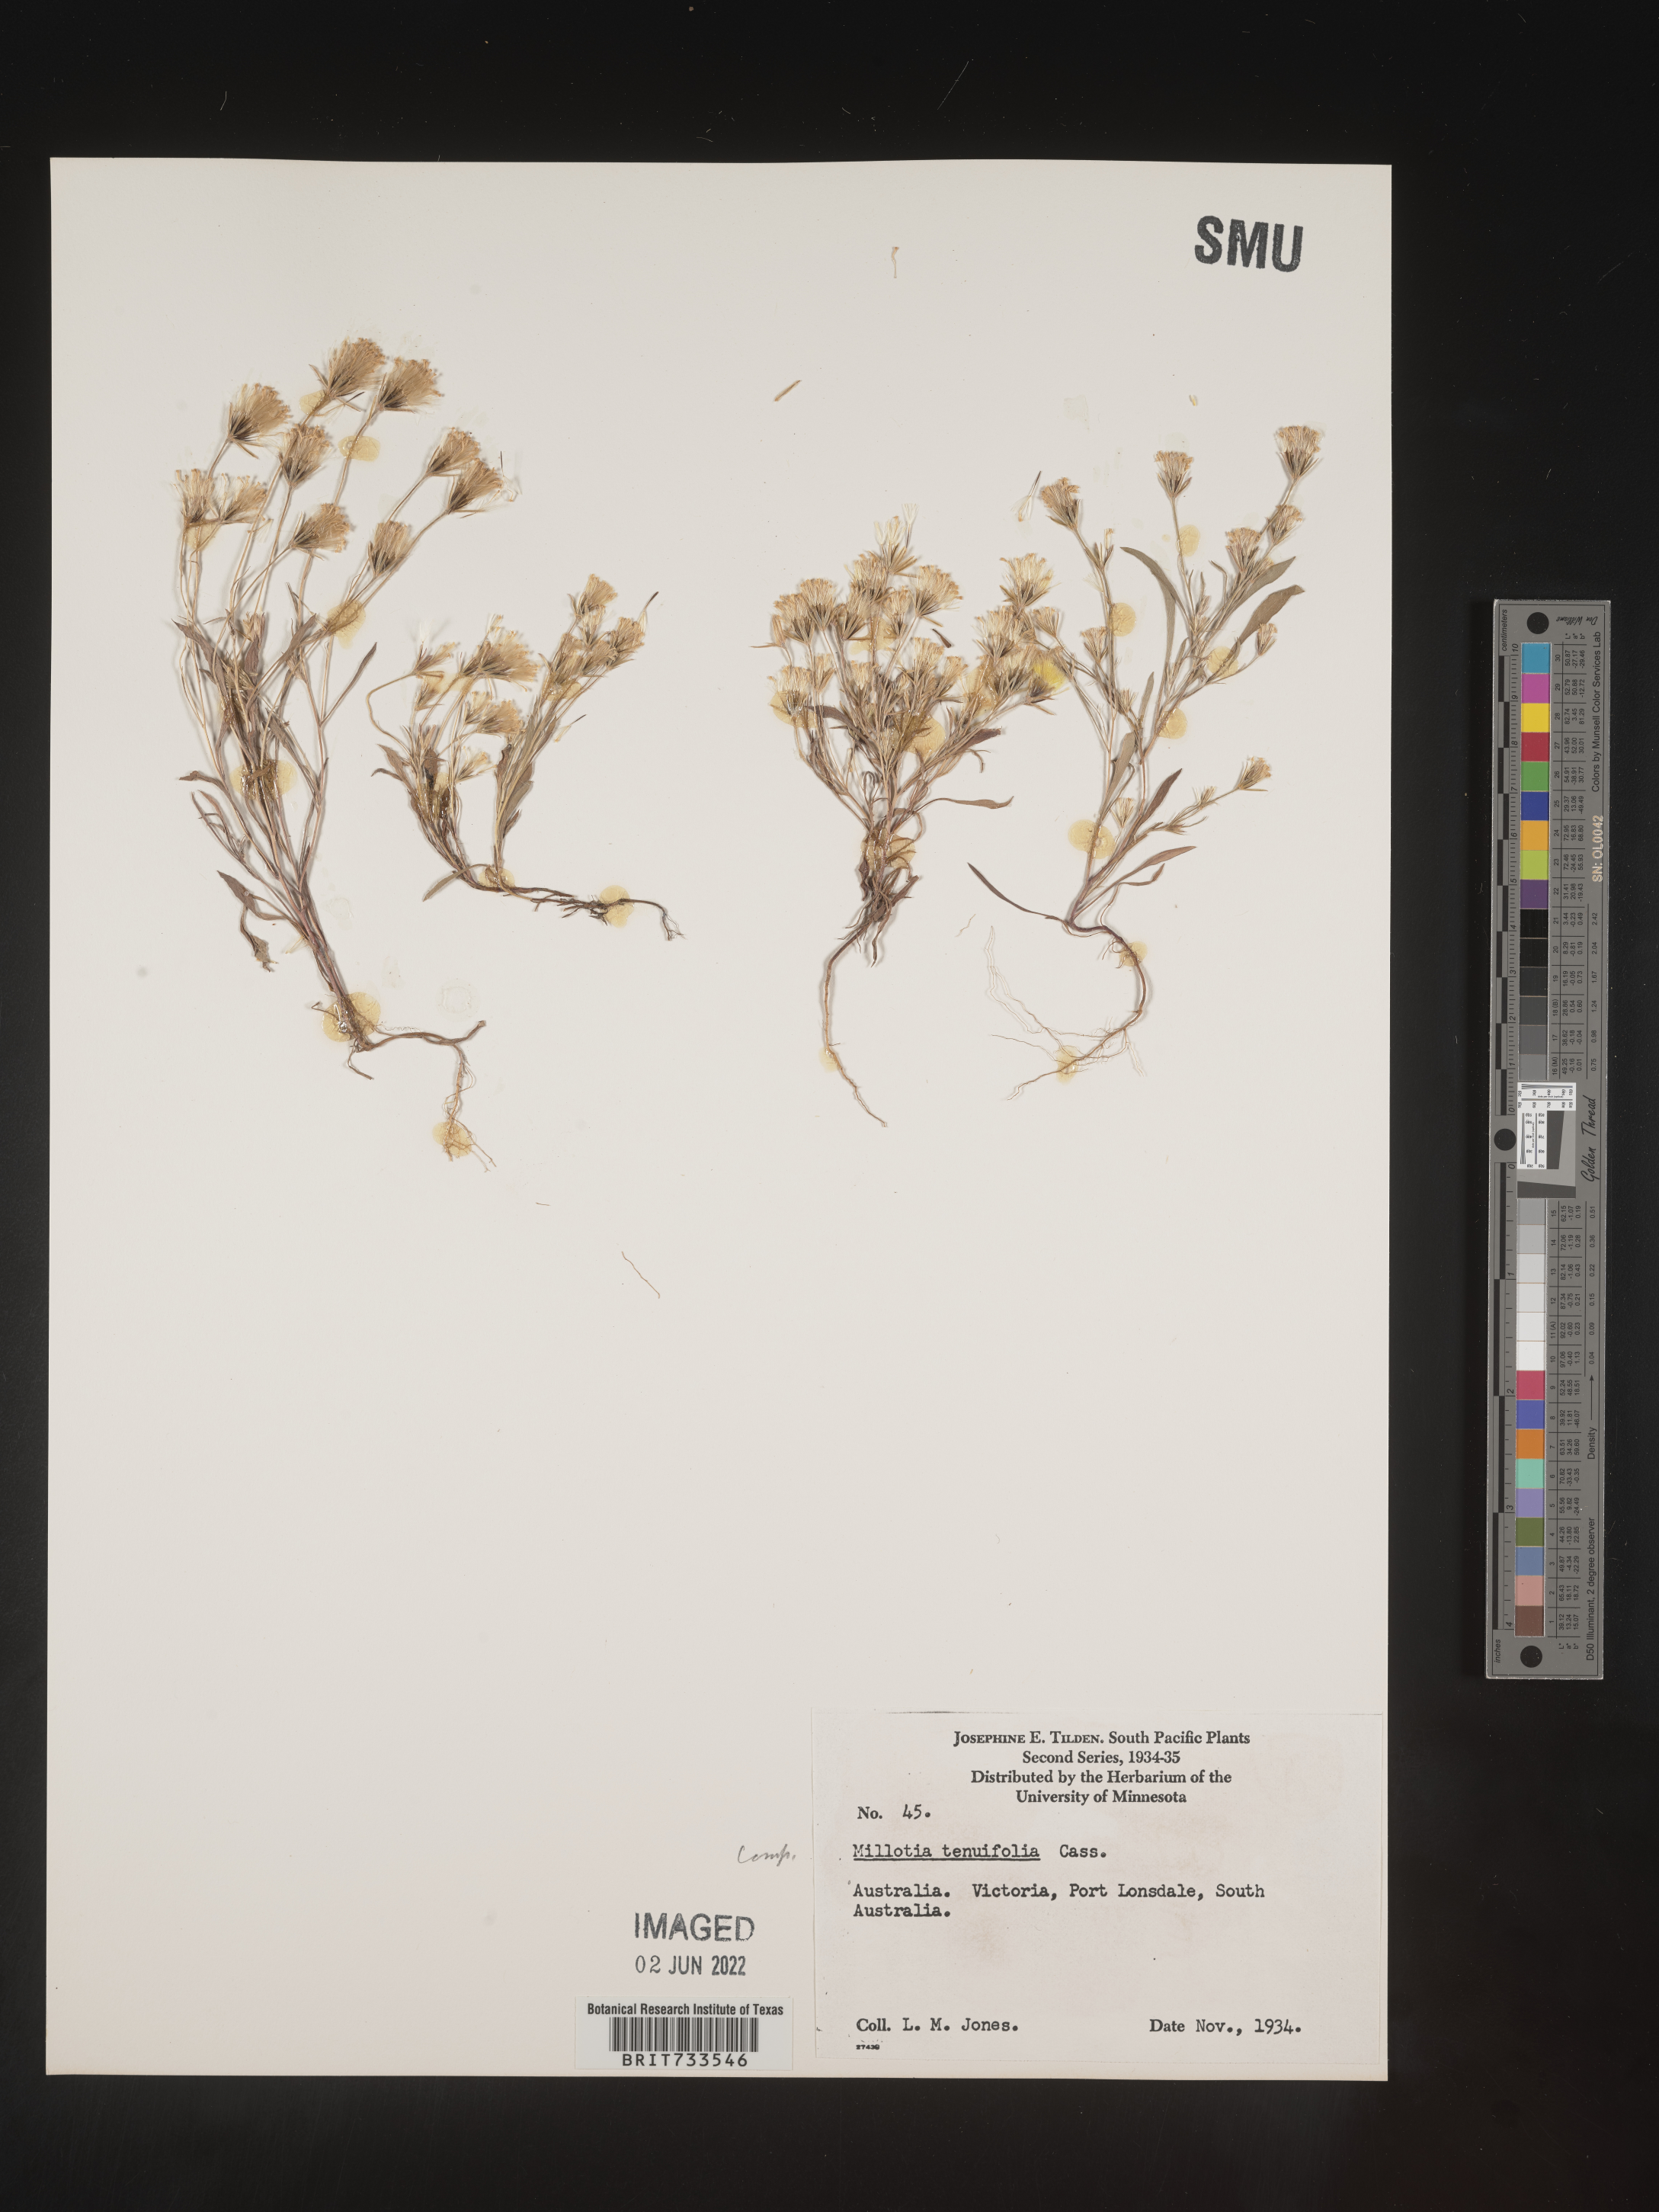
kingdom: Plantae
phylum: Tracheophyta
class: Magnoliopsida
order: Asterales
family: Asteraceae
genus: Millotia
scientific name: Millotia
